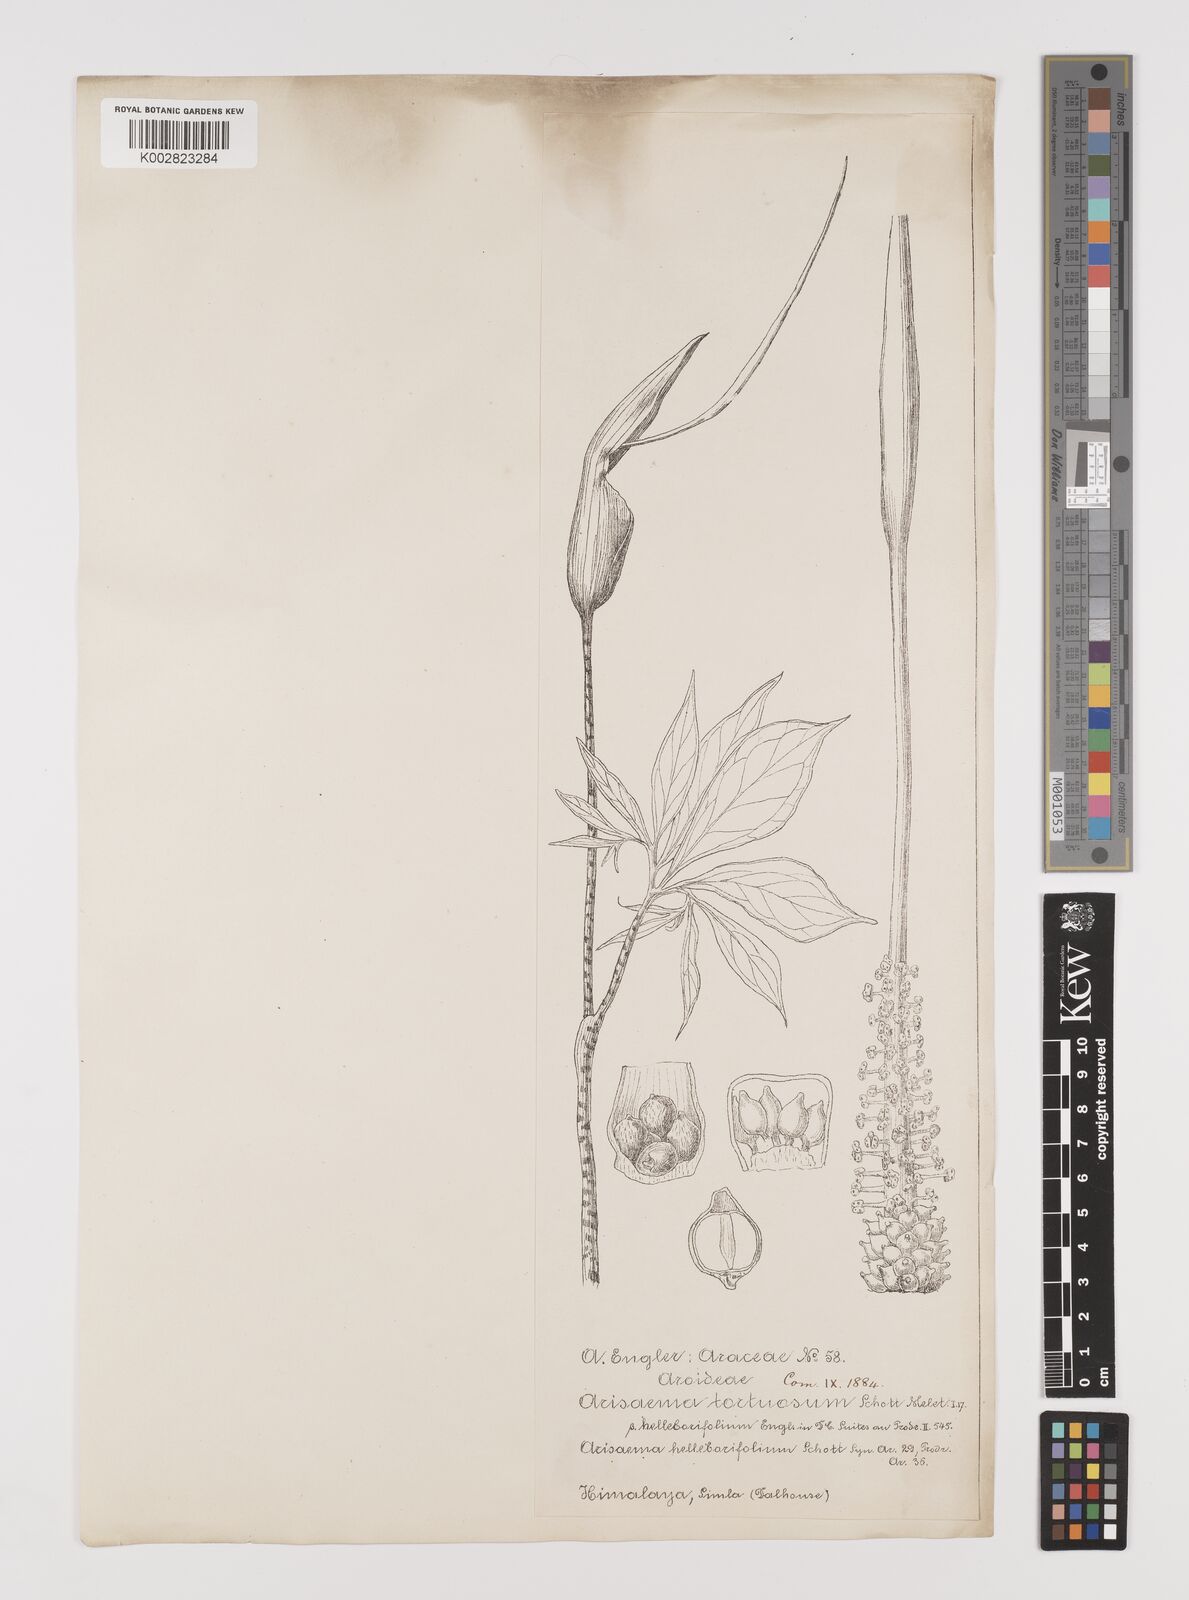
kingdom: Plantae
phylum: Tracheophyta
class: Liliopsida
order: Alismatales
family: Araceae
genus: Arisaema
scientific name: Arisaema tortuosum
